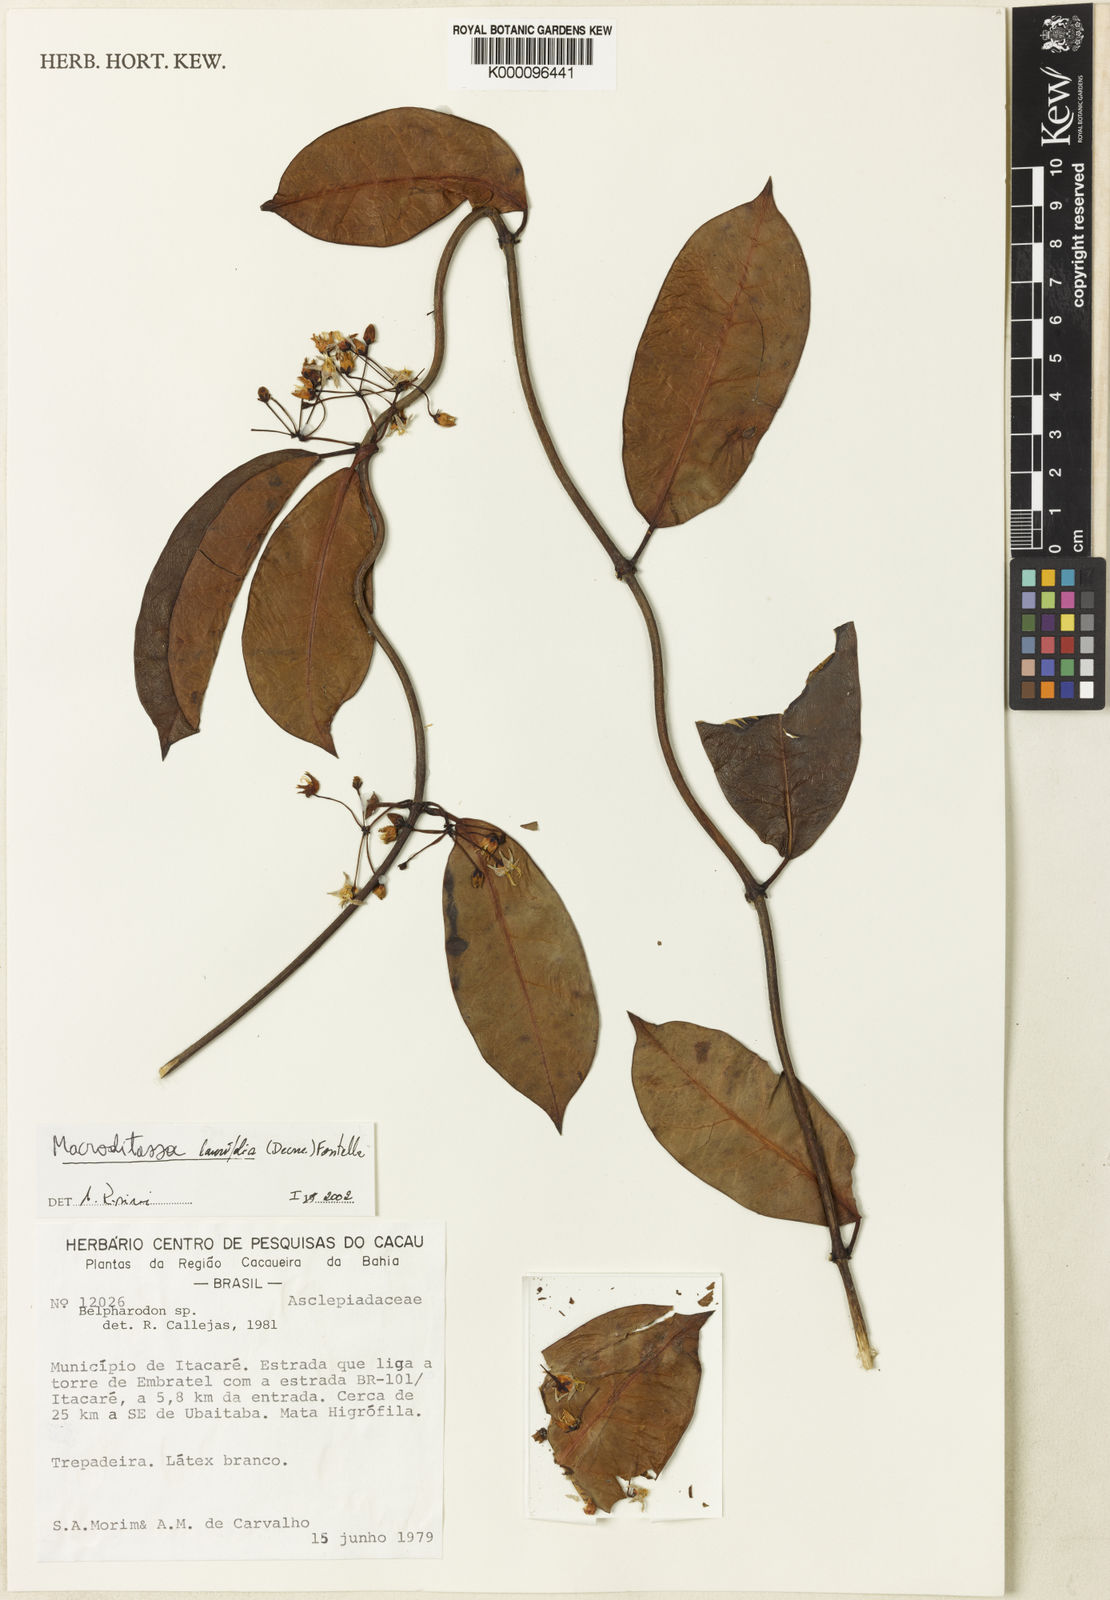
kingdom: Plantae
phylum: Tracheophyta
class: Magnoliopsida
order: Gentianales
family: Apocynaceae
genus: Nephradenia
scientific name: Nephradenia laurifolia
